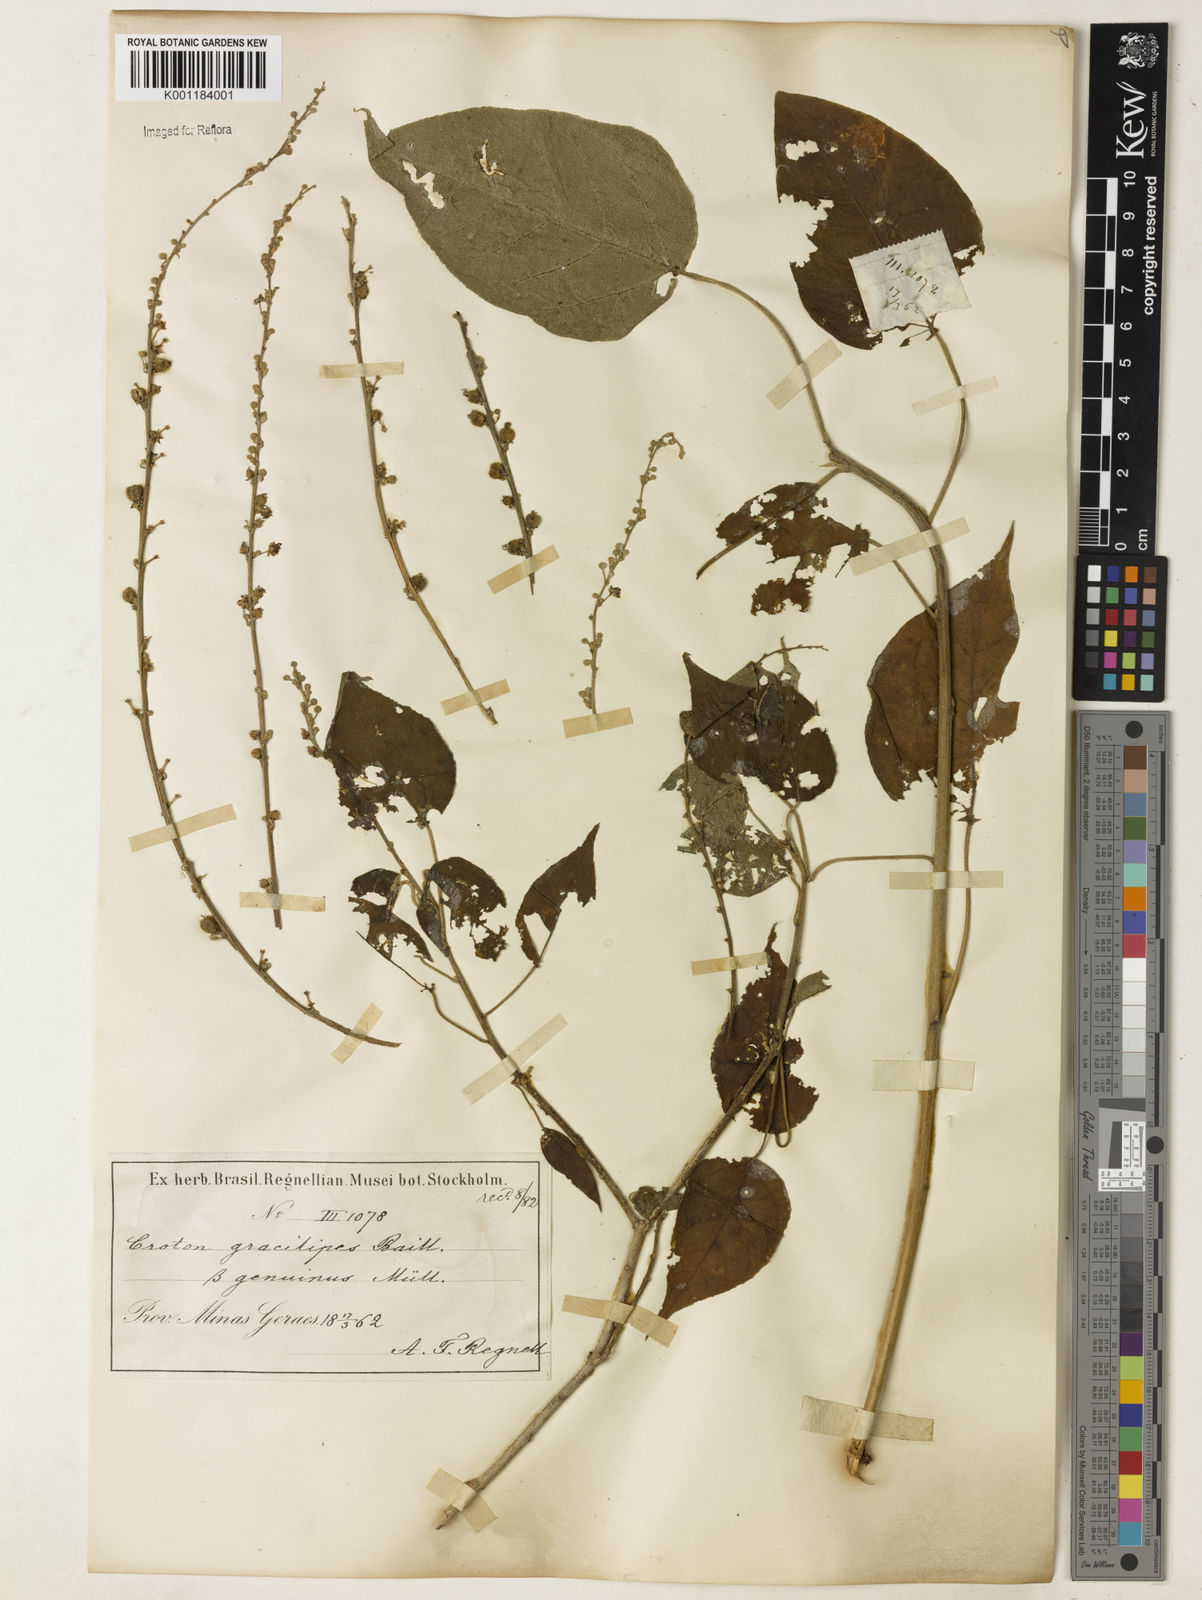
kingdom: Plantae
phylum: Tracheophyta
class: Magnoliopsida
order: Malpighiales
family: Euphorbiaceae
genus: Croton
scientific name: Croton gracilipes
